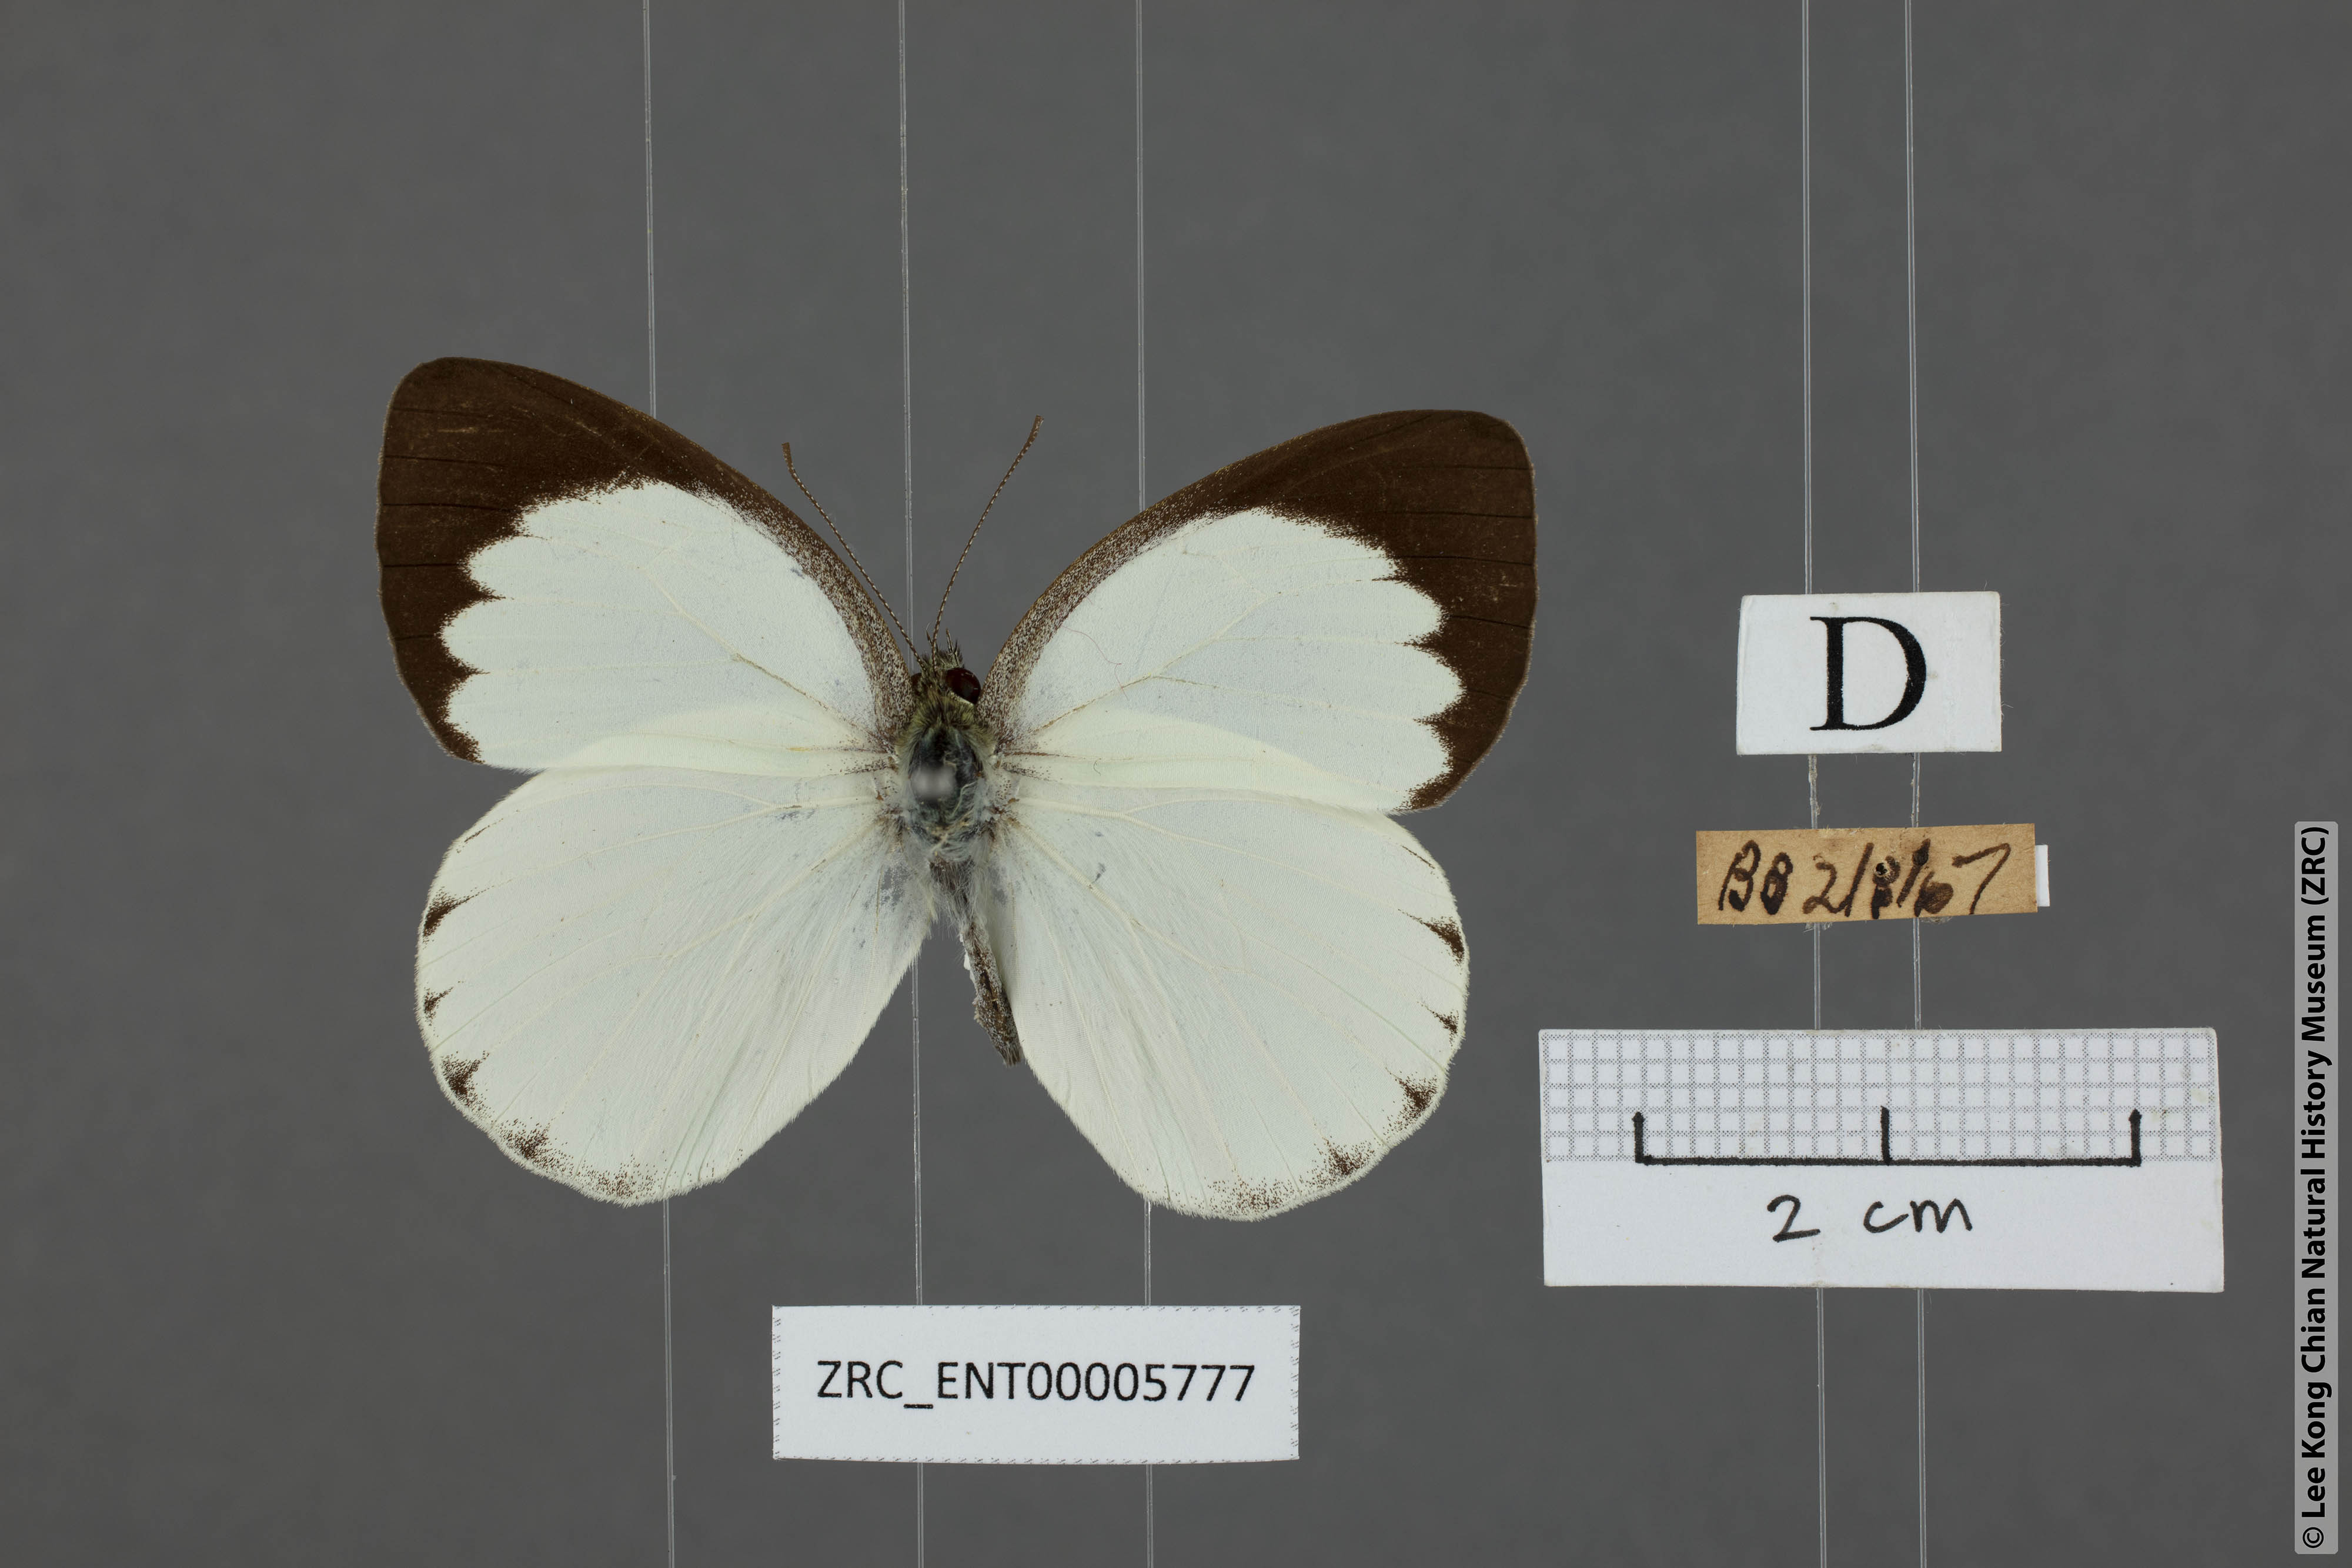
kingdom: Animalia
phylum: Arthropoda
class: Insecta
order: Lepidoptera
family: Pieridae
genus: Phrissura
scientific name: Phrissura aegis
